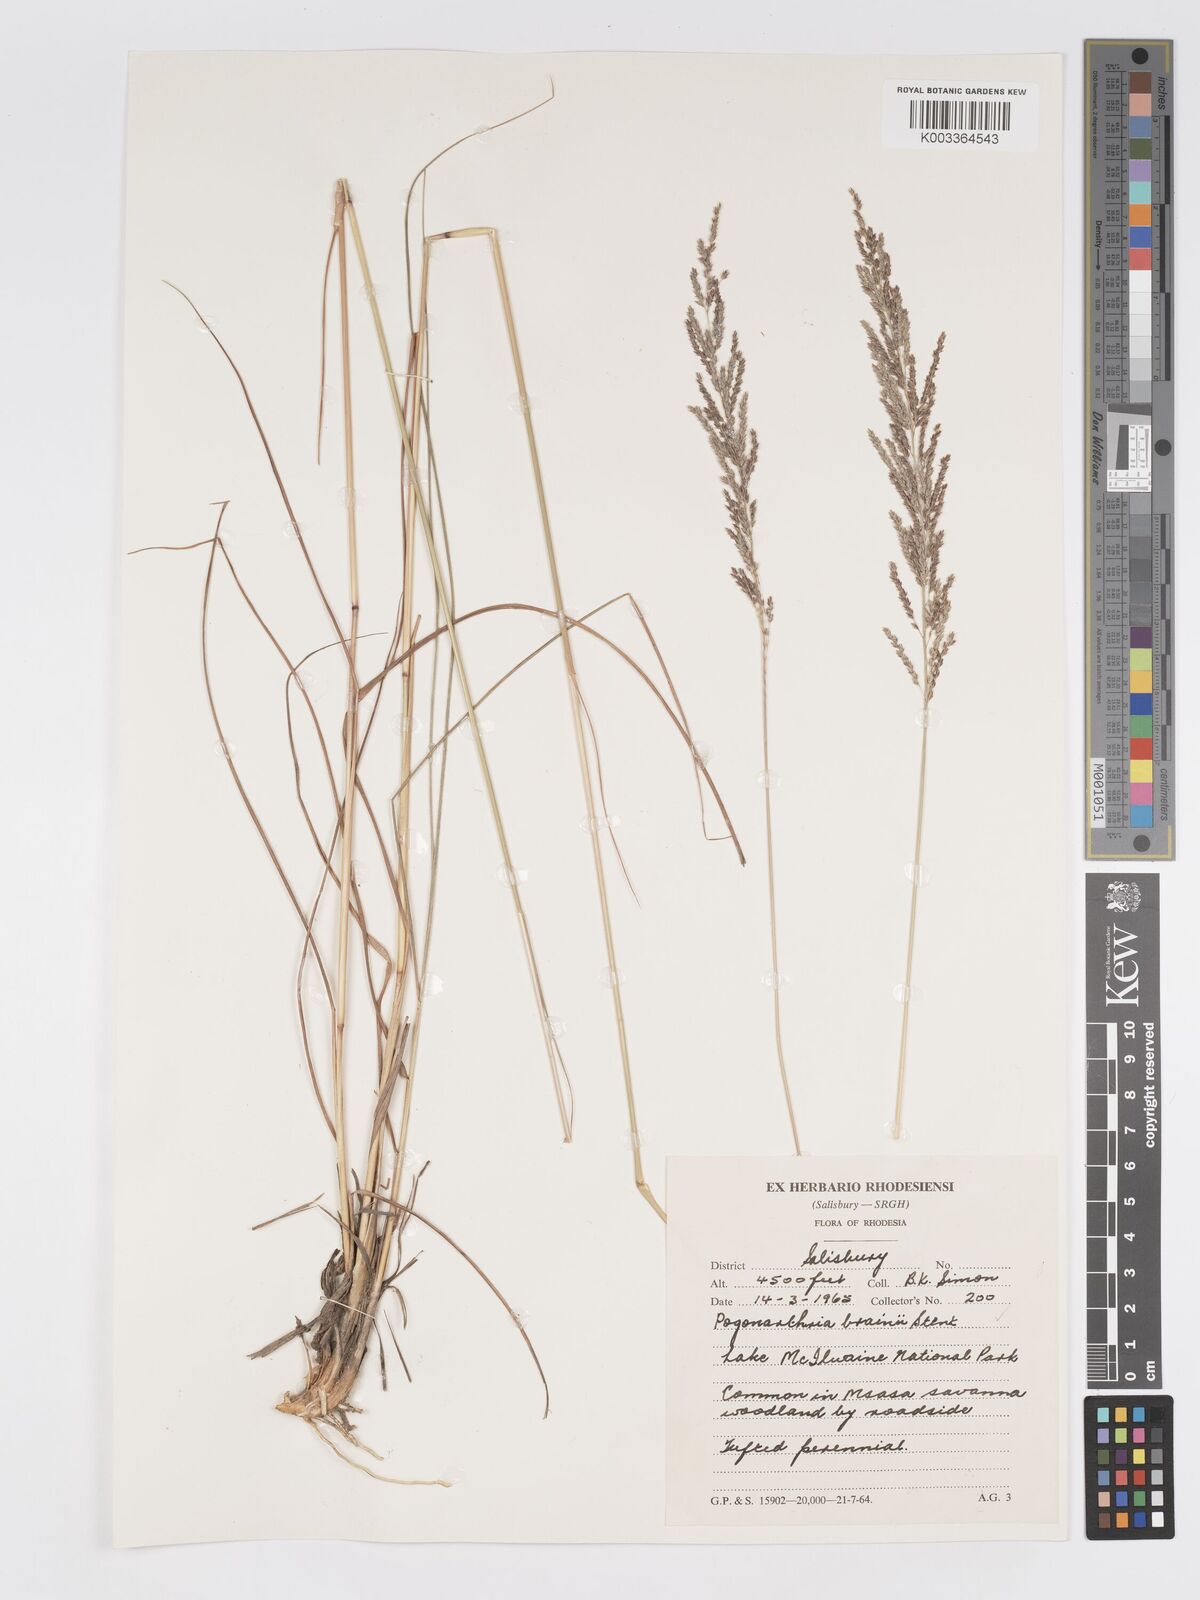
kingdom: Plantae
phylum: Tracheophyta
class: Liliopsida
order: Poales
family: Poaceae
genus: Eragrostis
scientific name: Eragrostis brainii
